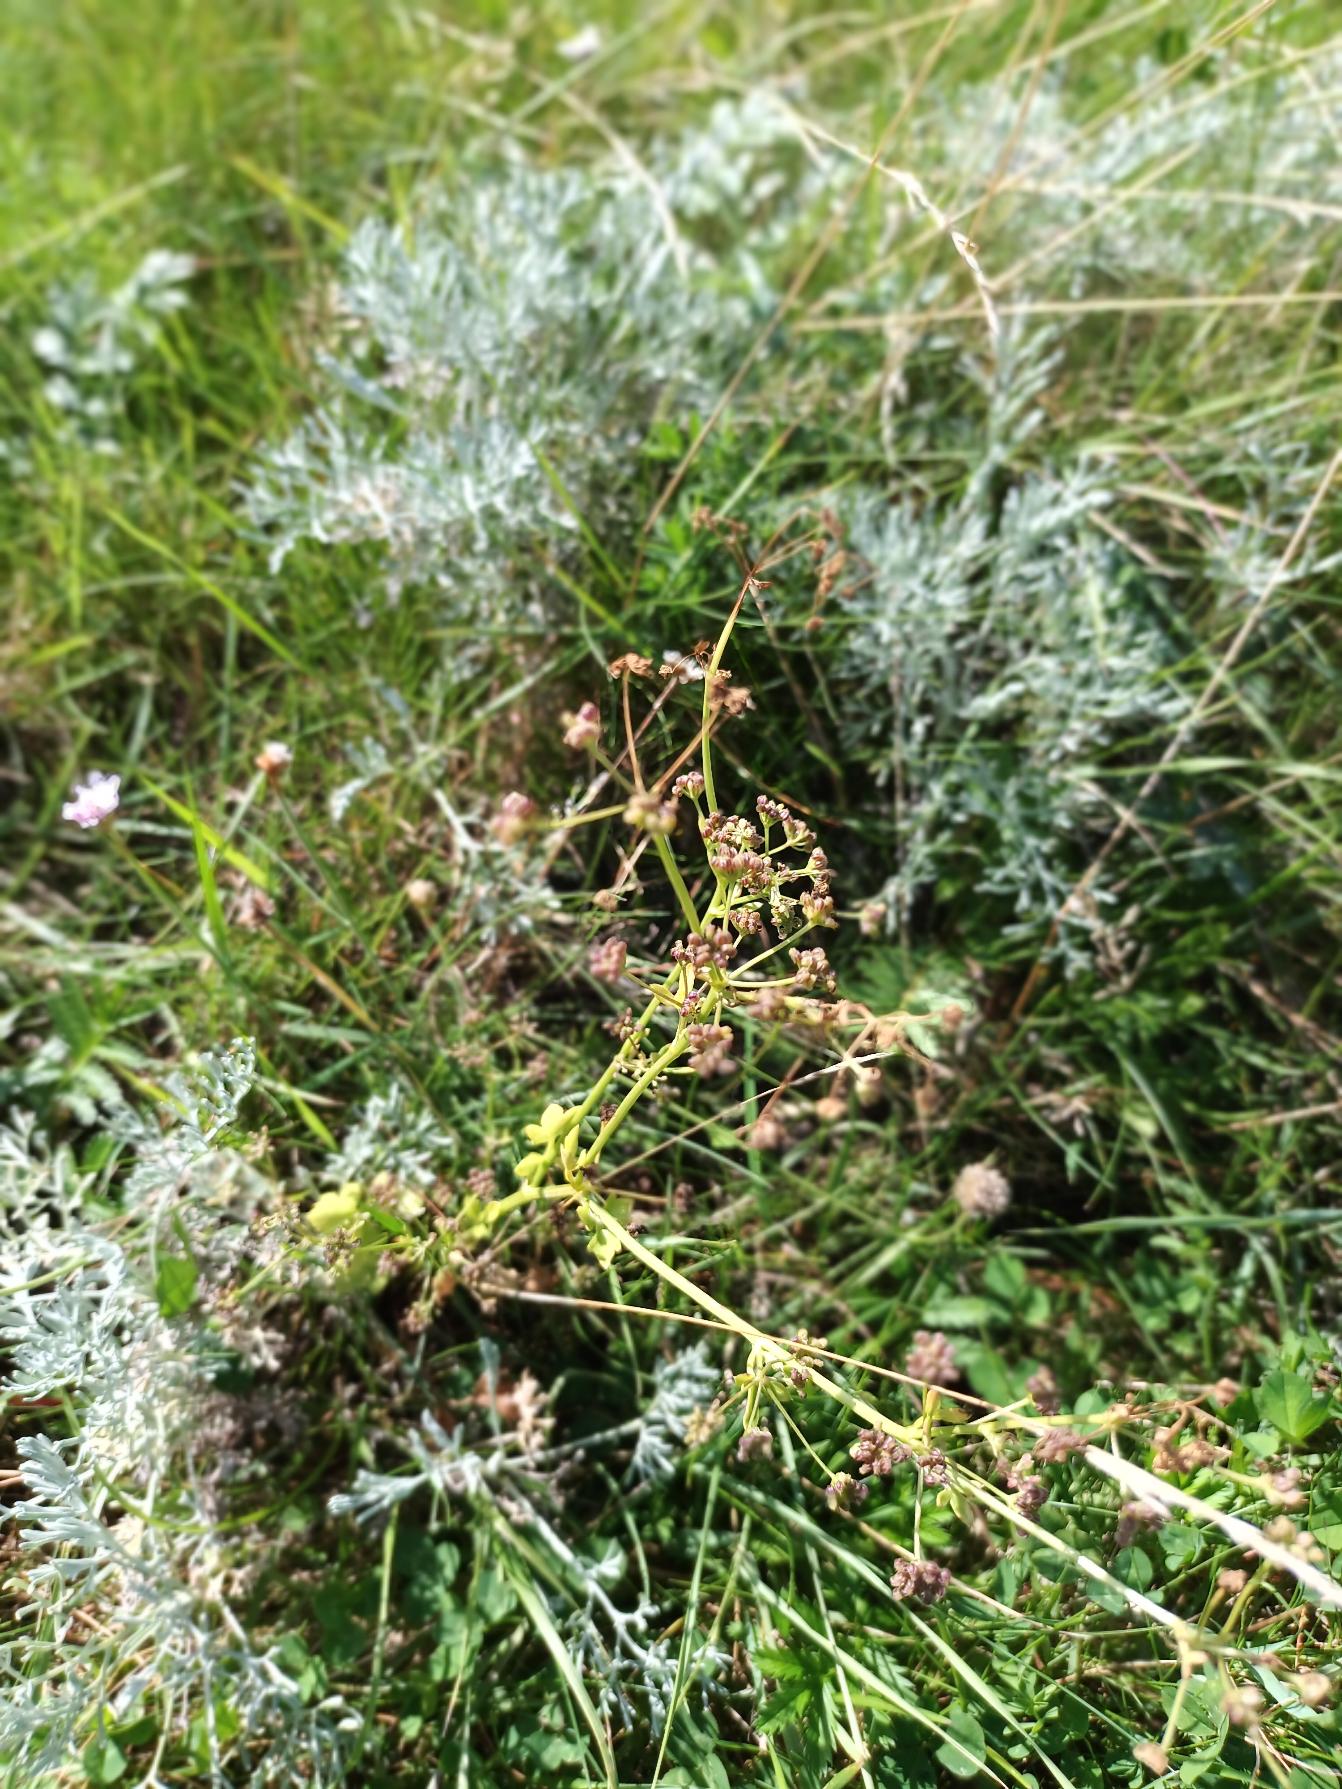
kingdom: Plantae
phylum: Tracheophyta
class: Magnoliopsida
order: Apiales
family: Apiaceae
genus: Apium
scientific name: Apium graveolens
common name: Vild selleri
